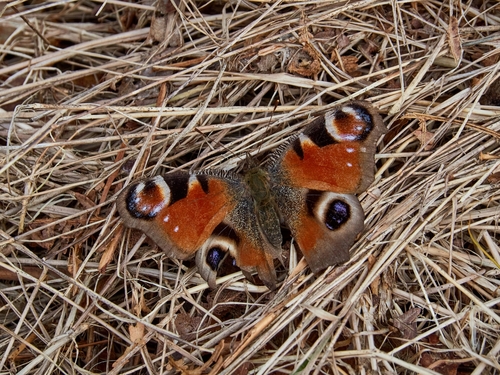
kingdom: Animalia
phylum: Arthropoda
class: Insecta
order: Lepidoptera
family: Nymphalidae
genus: Aglais
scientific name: Aglais io
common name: Peacock
